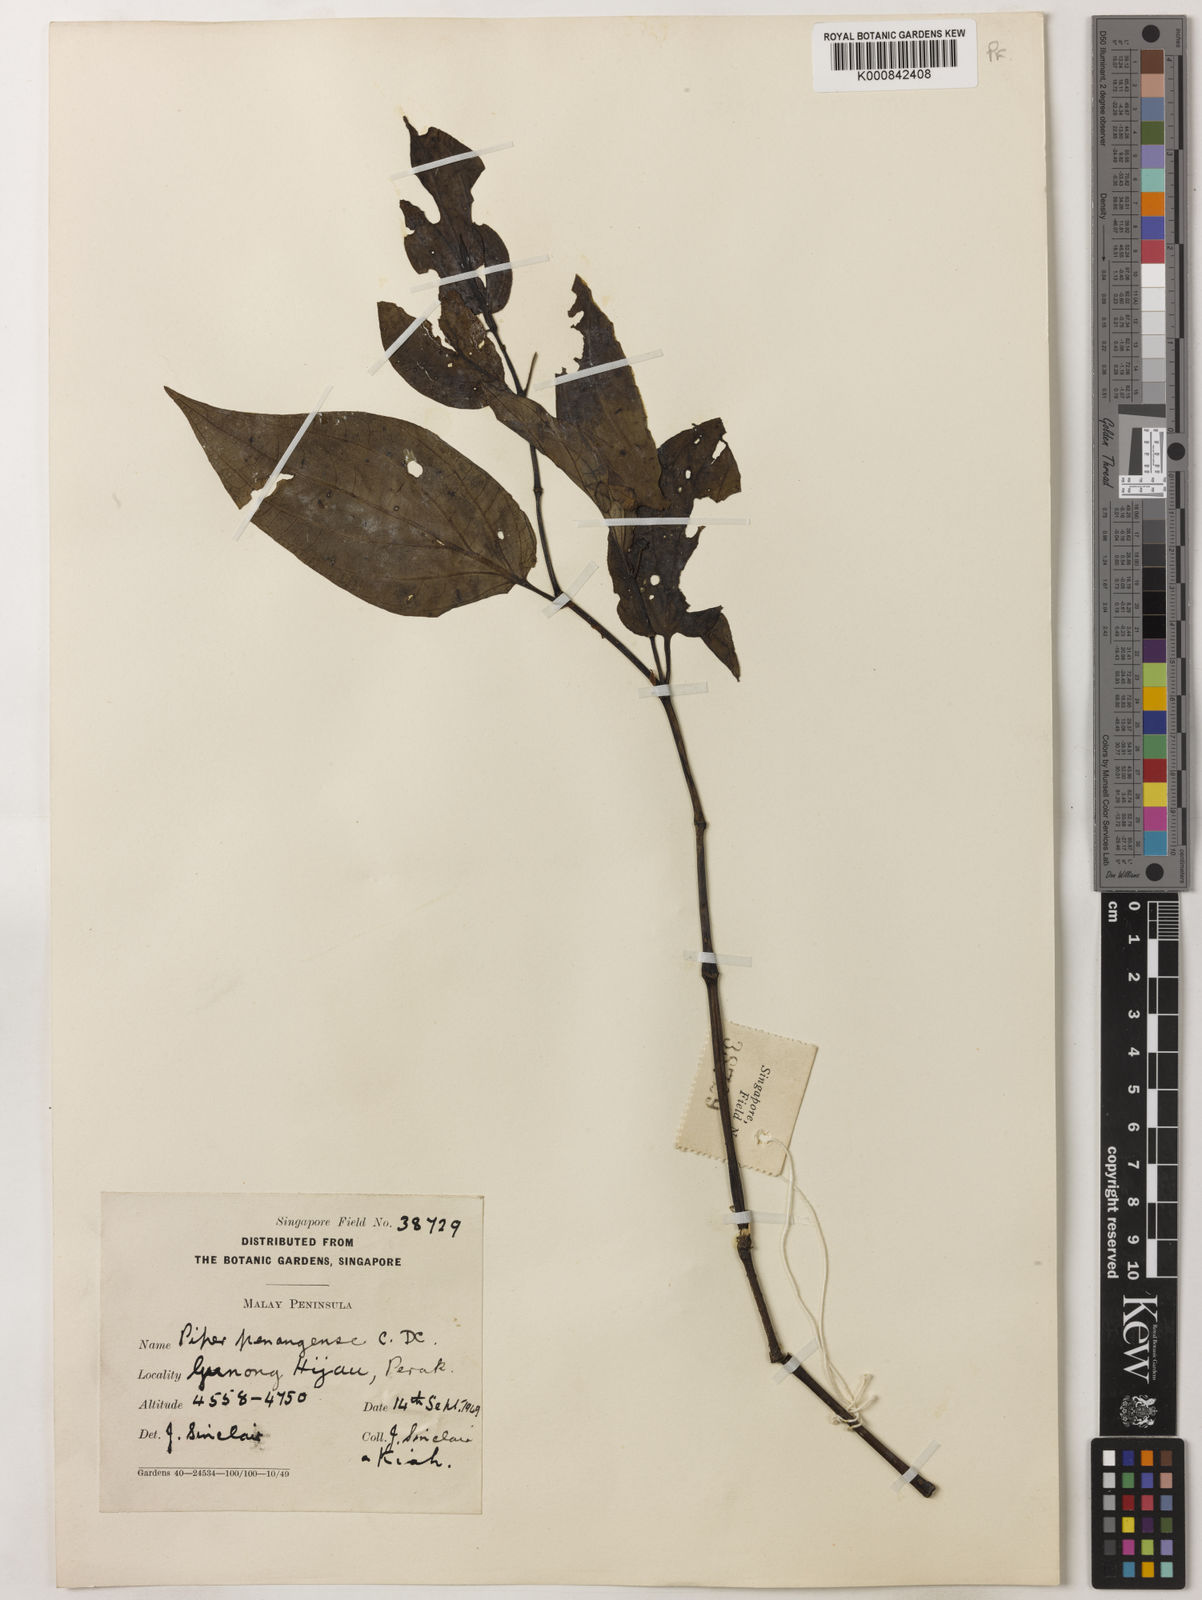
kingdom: Plantae
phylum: Tracheophyta
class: Magnoliopsida
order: Piperales
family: Piperaceae
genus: Piper
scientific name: Piper penangense
